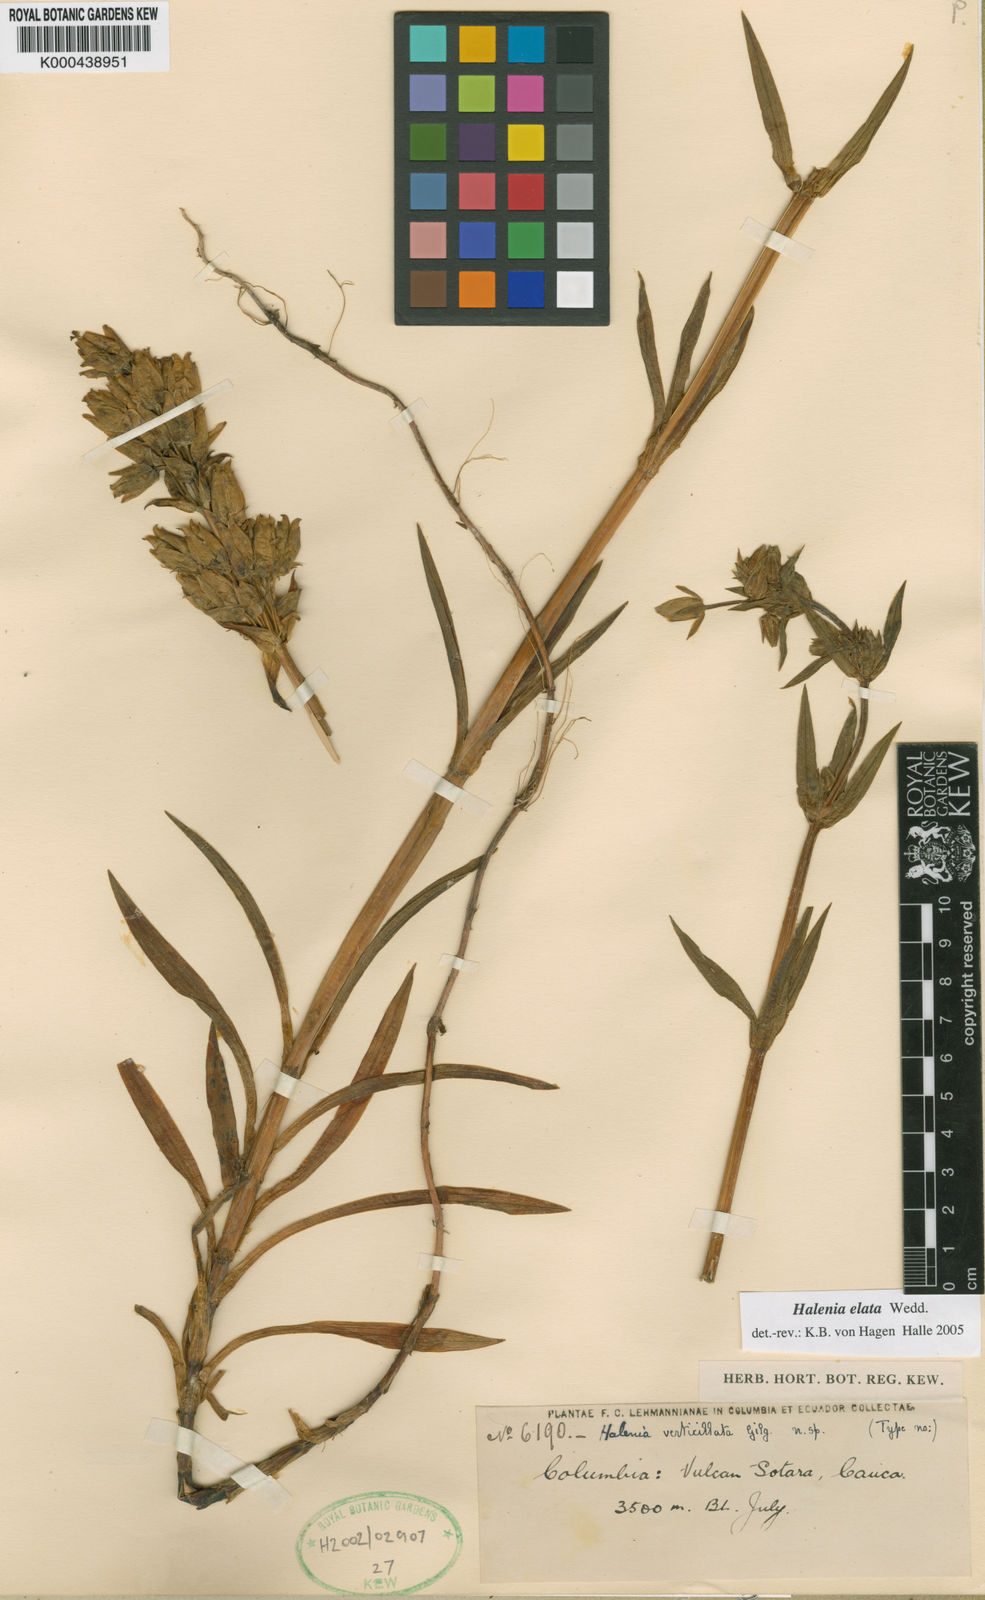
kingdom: Plantae
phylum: Tracheophyta
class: Magnoliopsida
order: Gentianales
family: Gentianaceae
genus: Halenia
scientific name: Halenia elata
